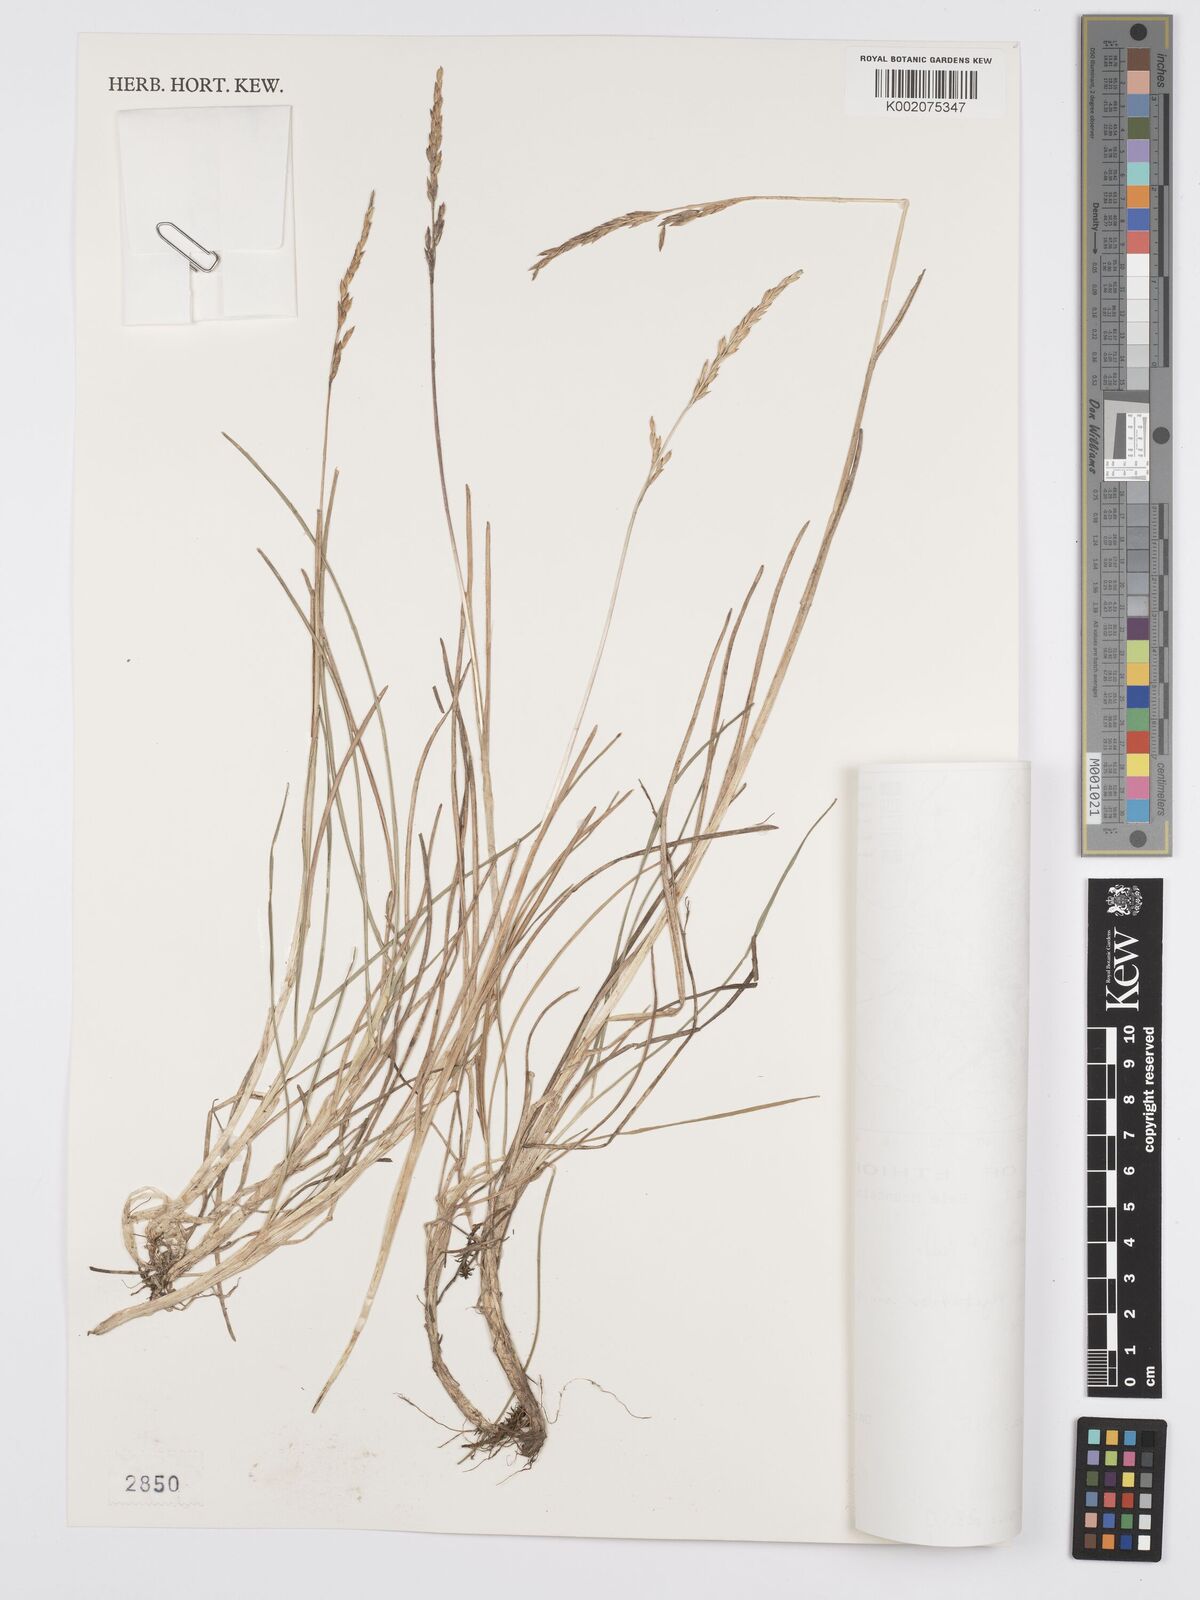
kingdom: Plantae
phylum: Tracheophyta
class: Liliopsida
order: Poales
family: Poaceae
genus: Poa
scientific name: Poa schimperiana
